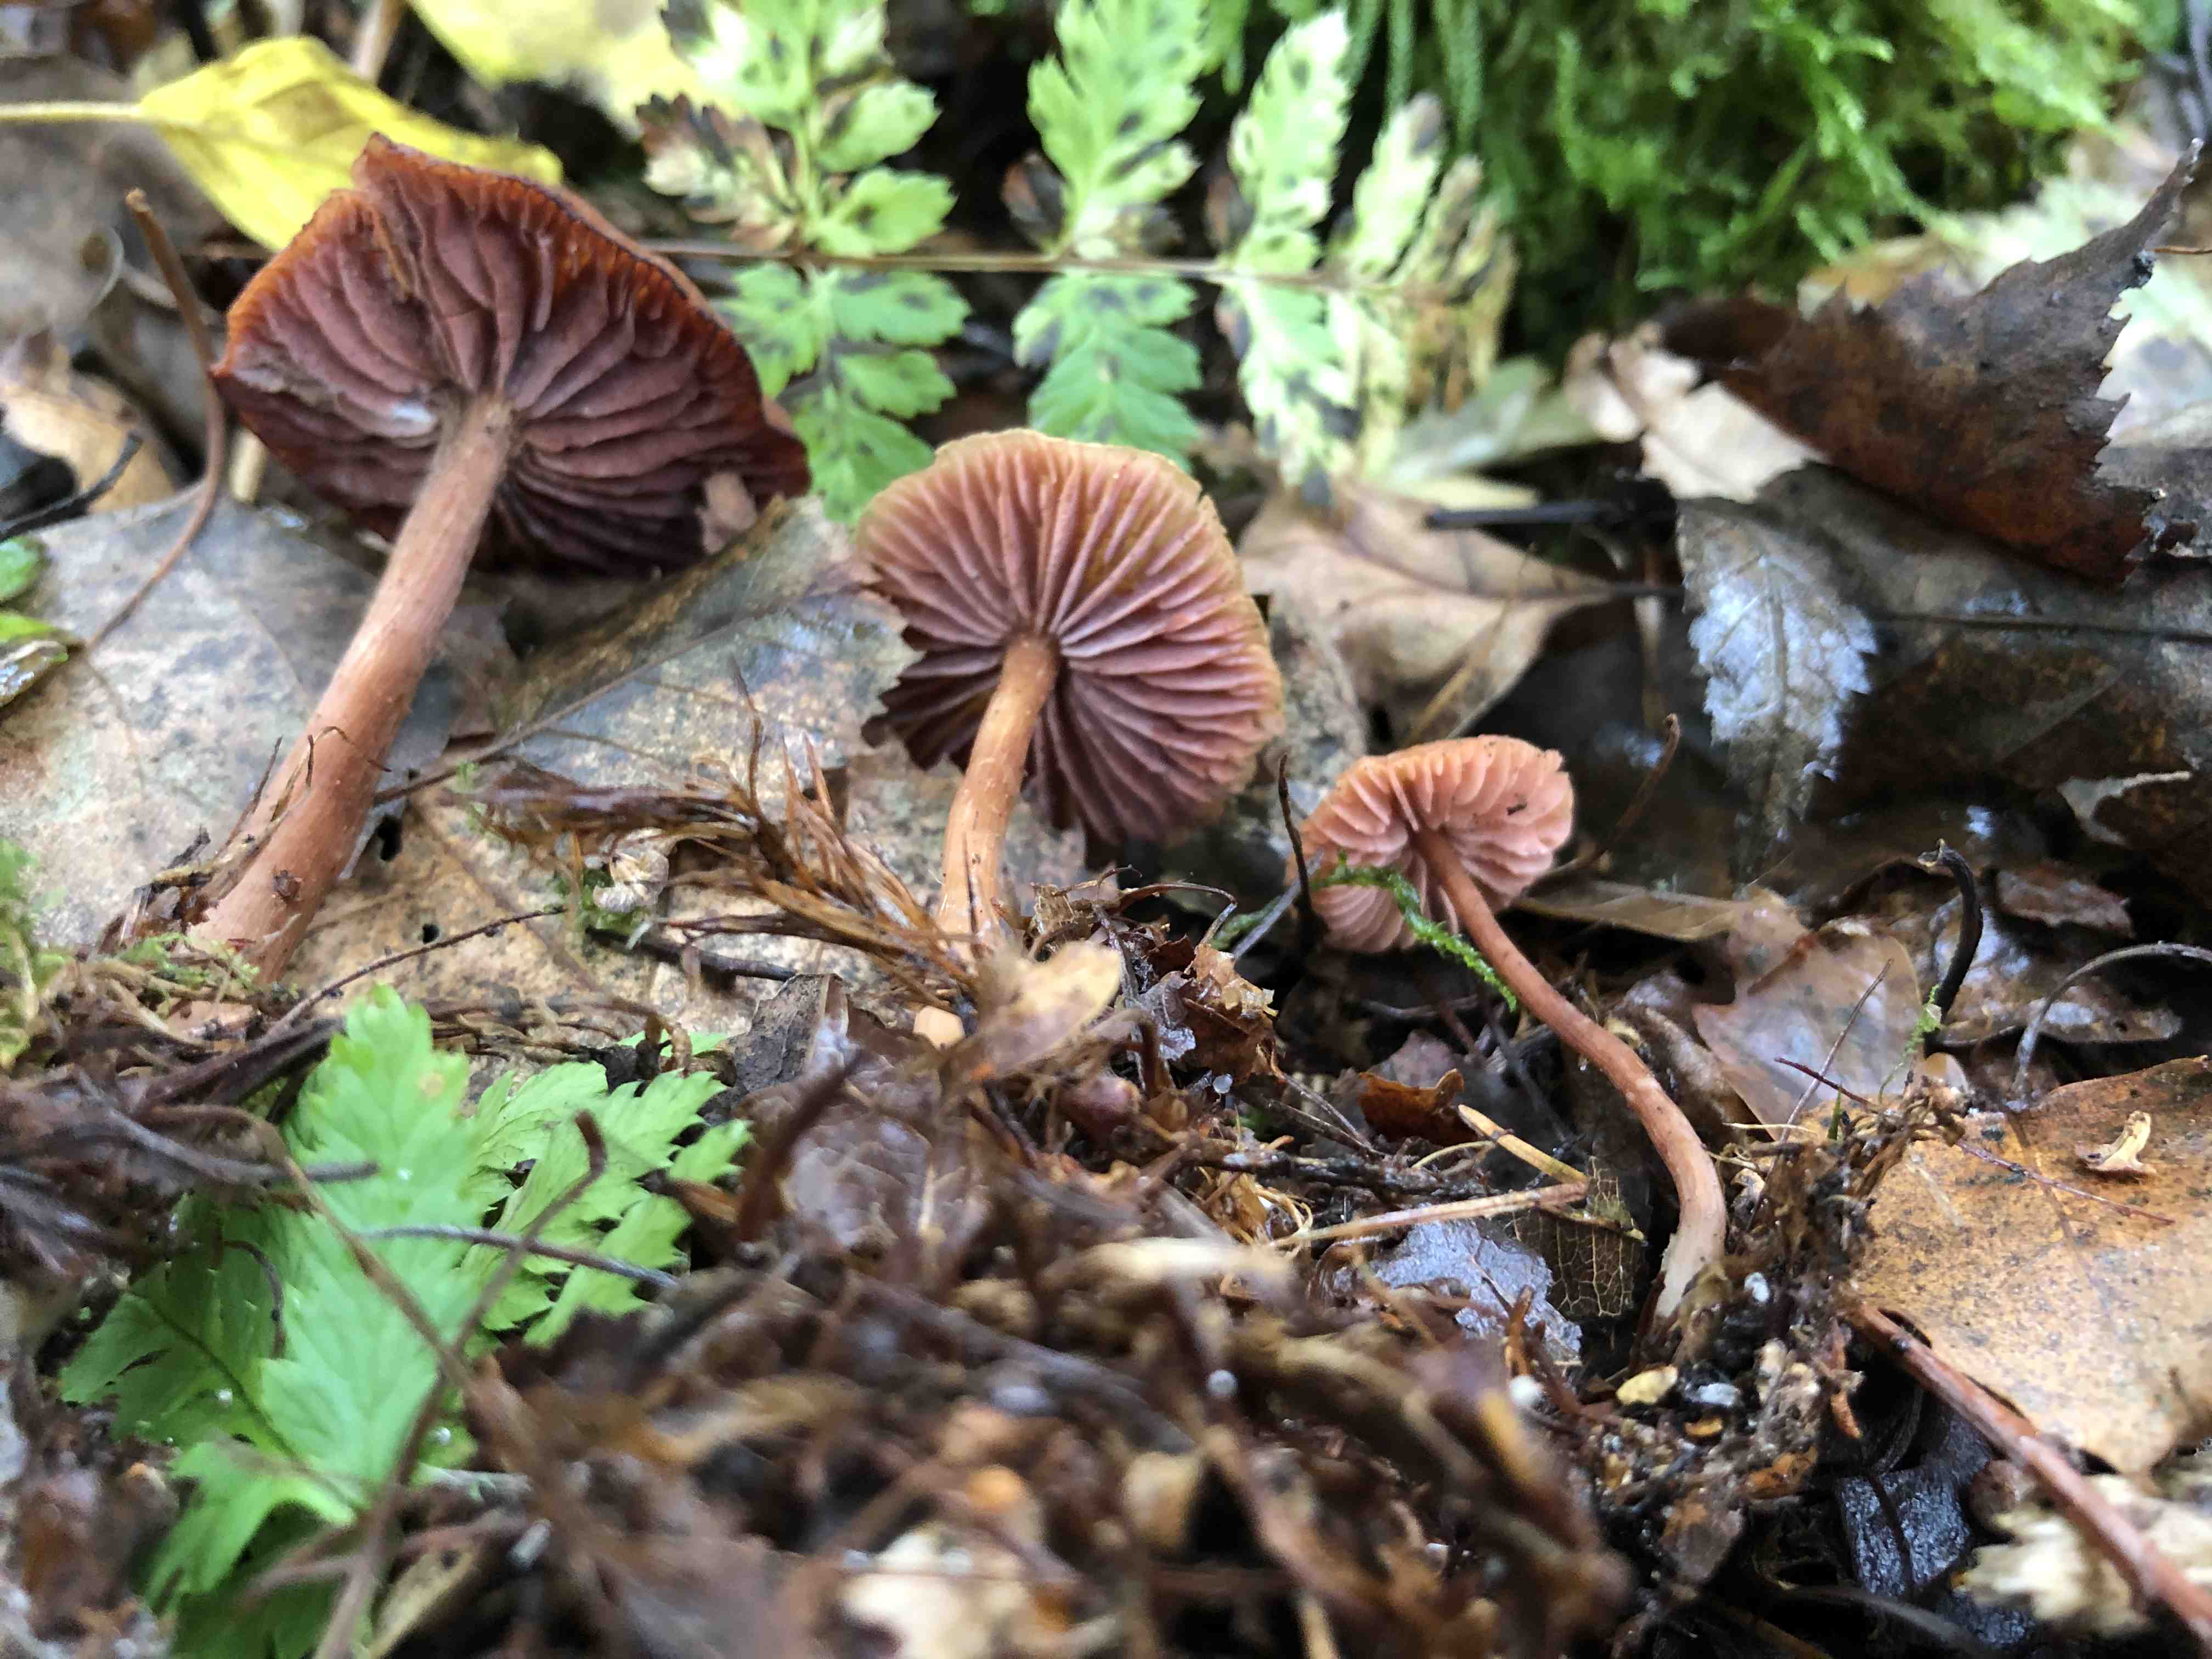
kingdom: Fungi
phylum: Basidiomycota
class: Agaricomycetes
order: Agaricales
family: Hydnangiaceae
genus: Laccaria
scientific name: Laccaria
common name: ametysthat
